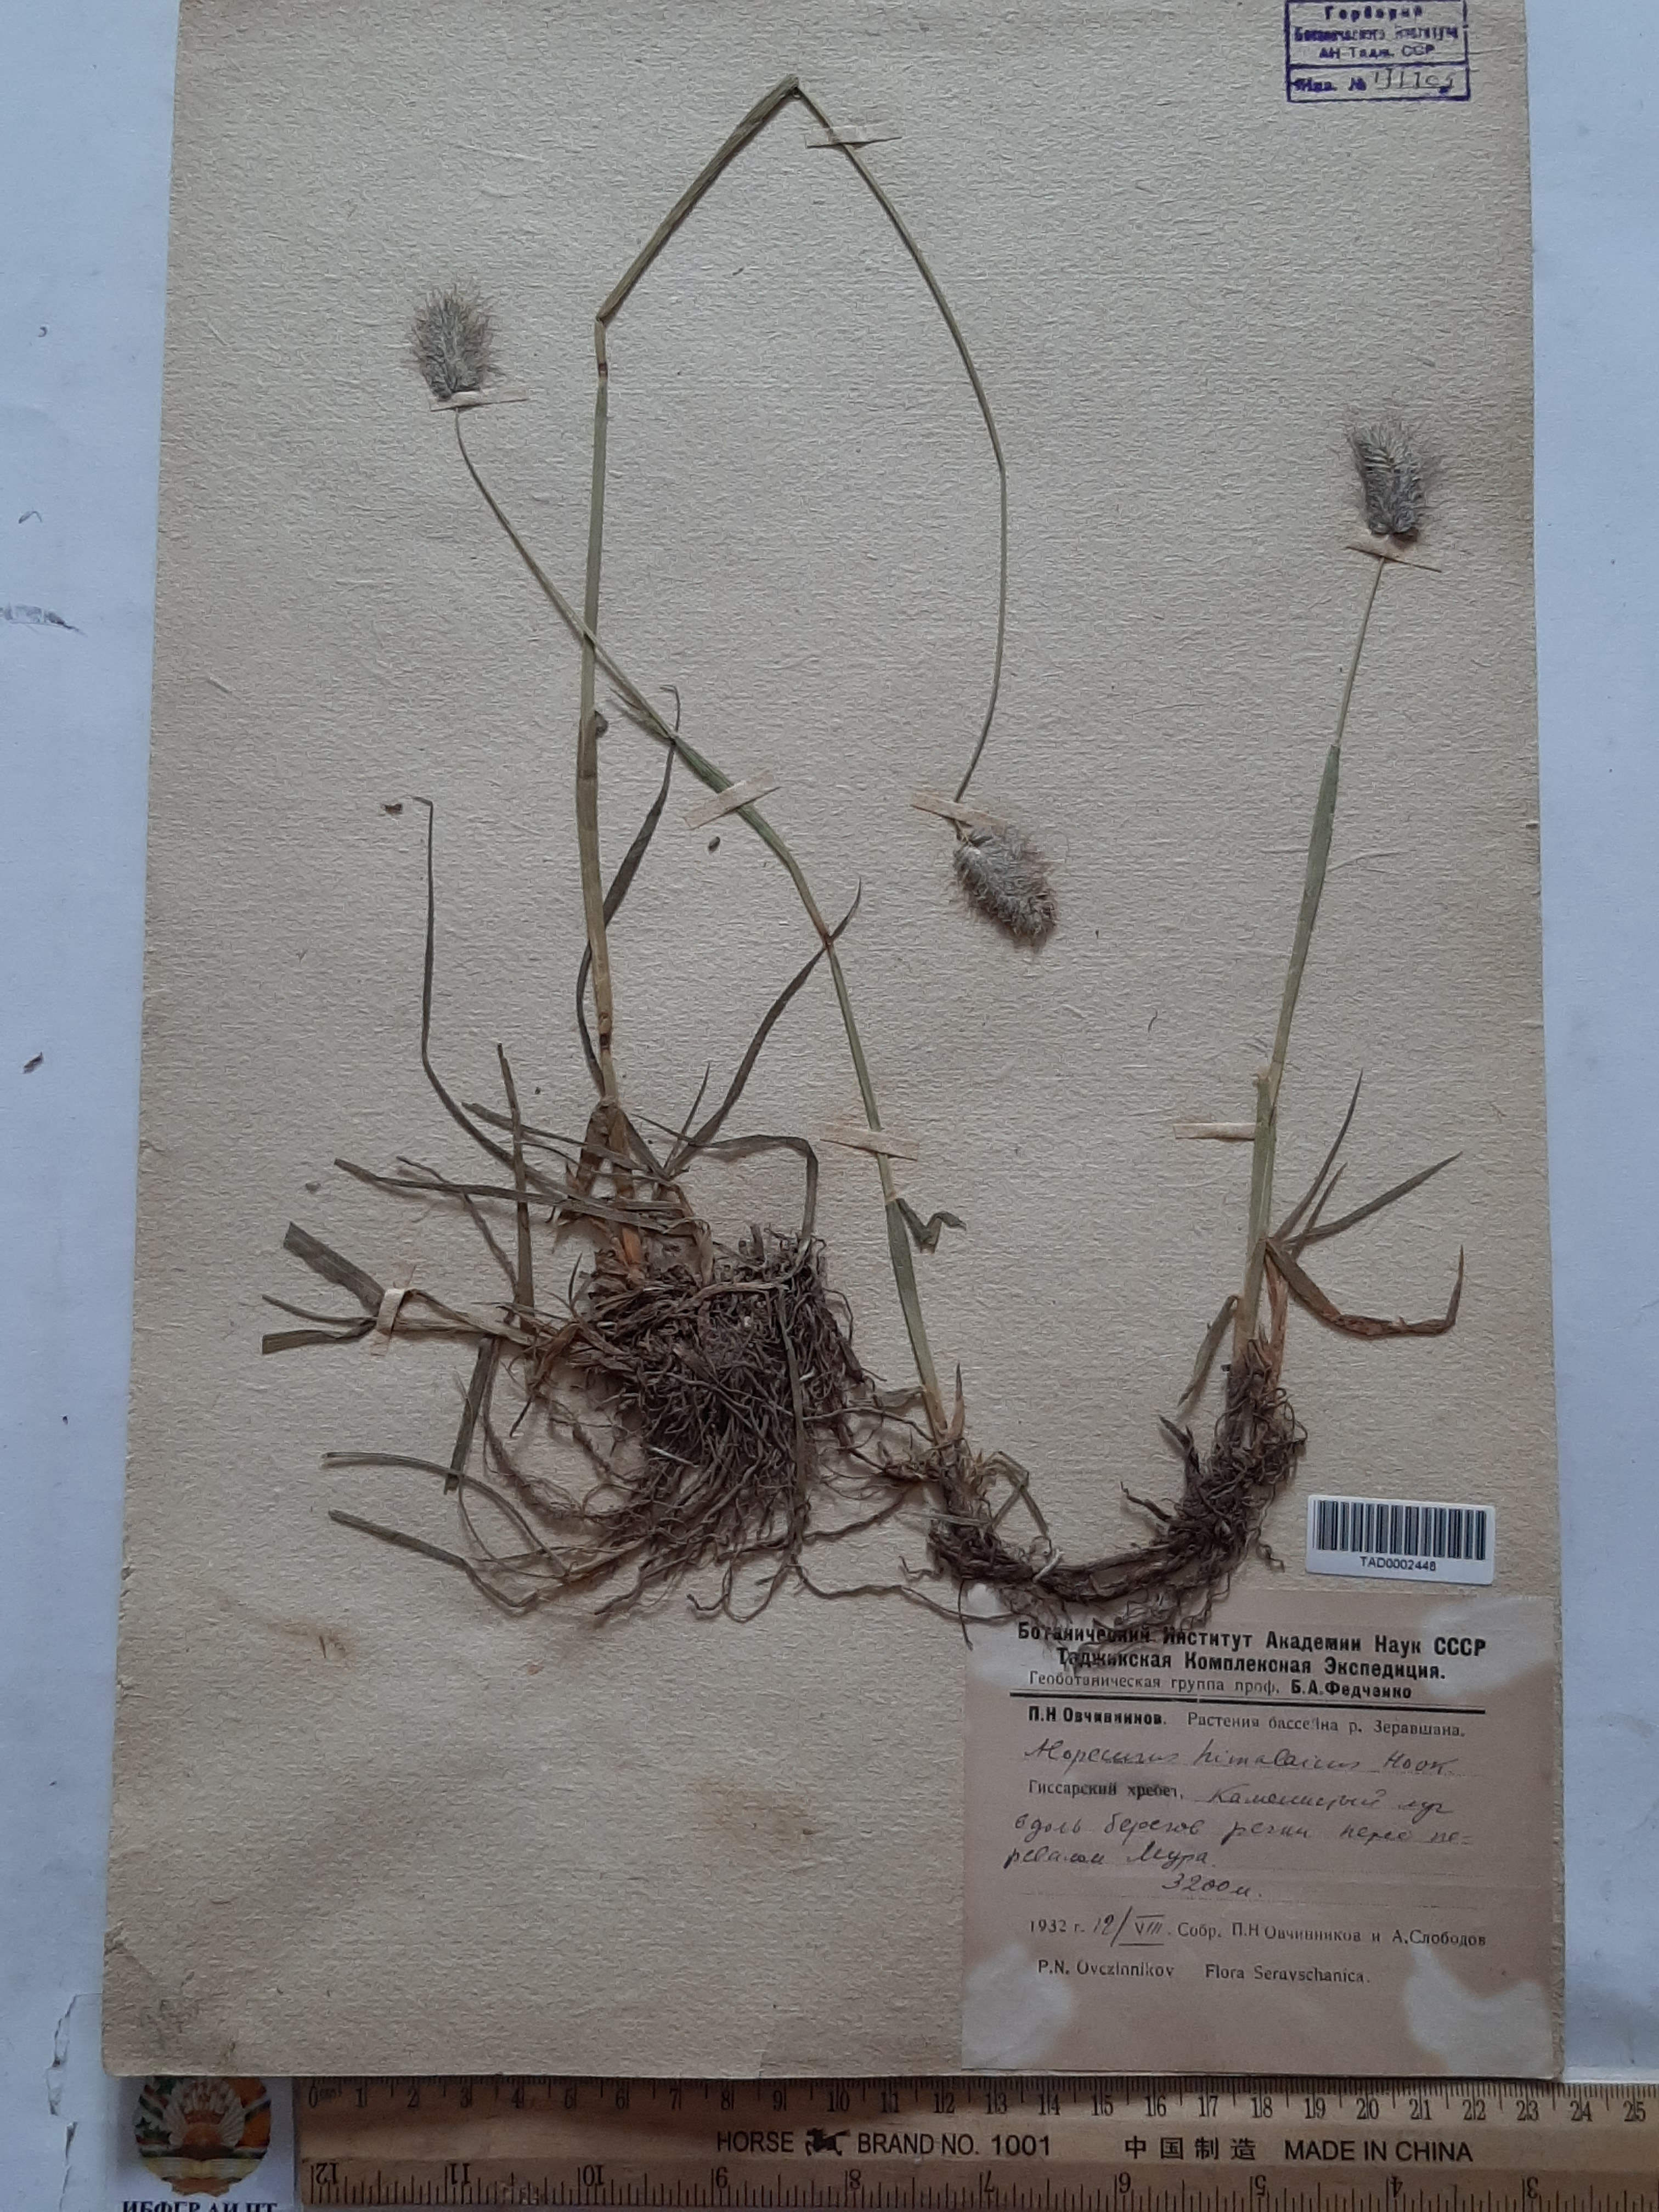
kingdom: Plantae
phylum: Tracheophyta
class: Liliopsida
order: Poales
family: Poaceae
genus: Alopecurus
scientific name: Alopecurus himalaicus
